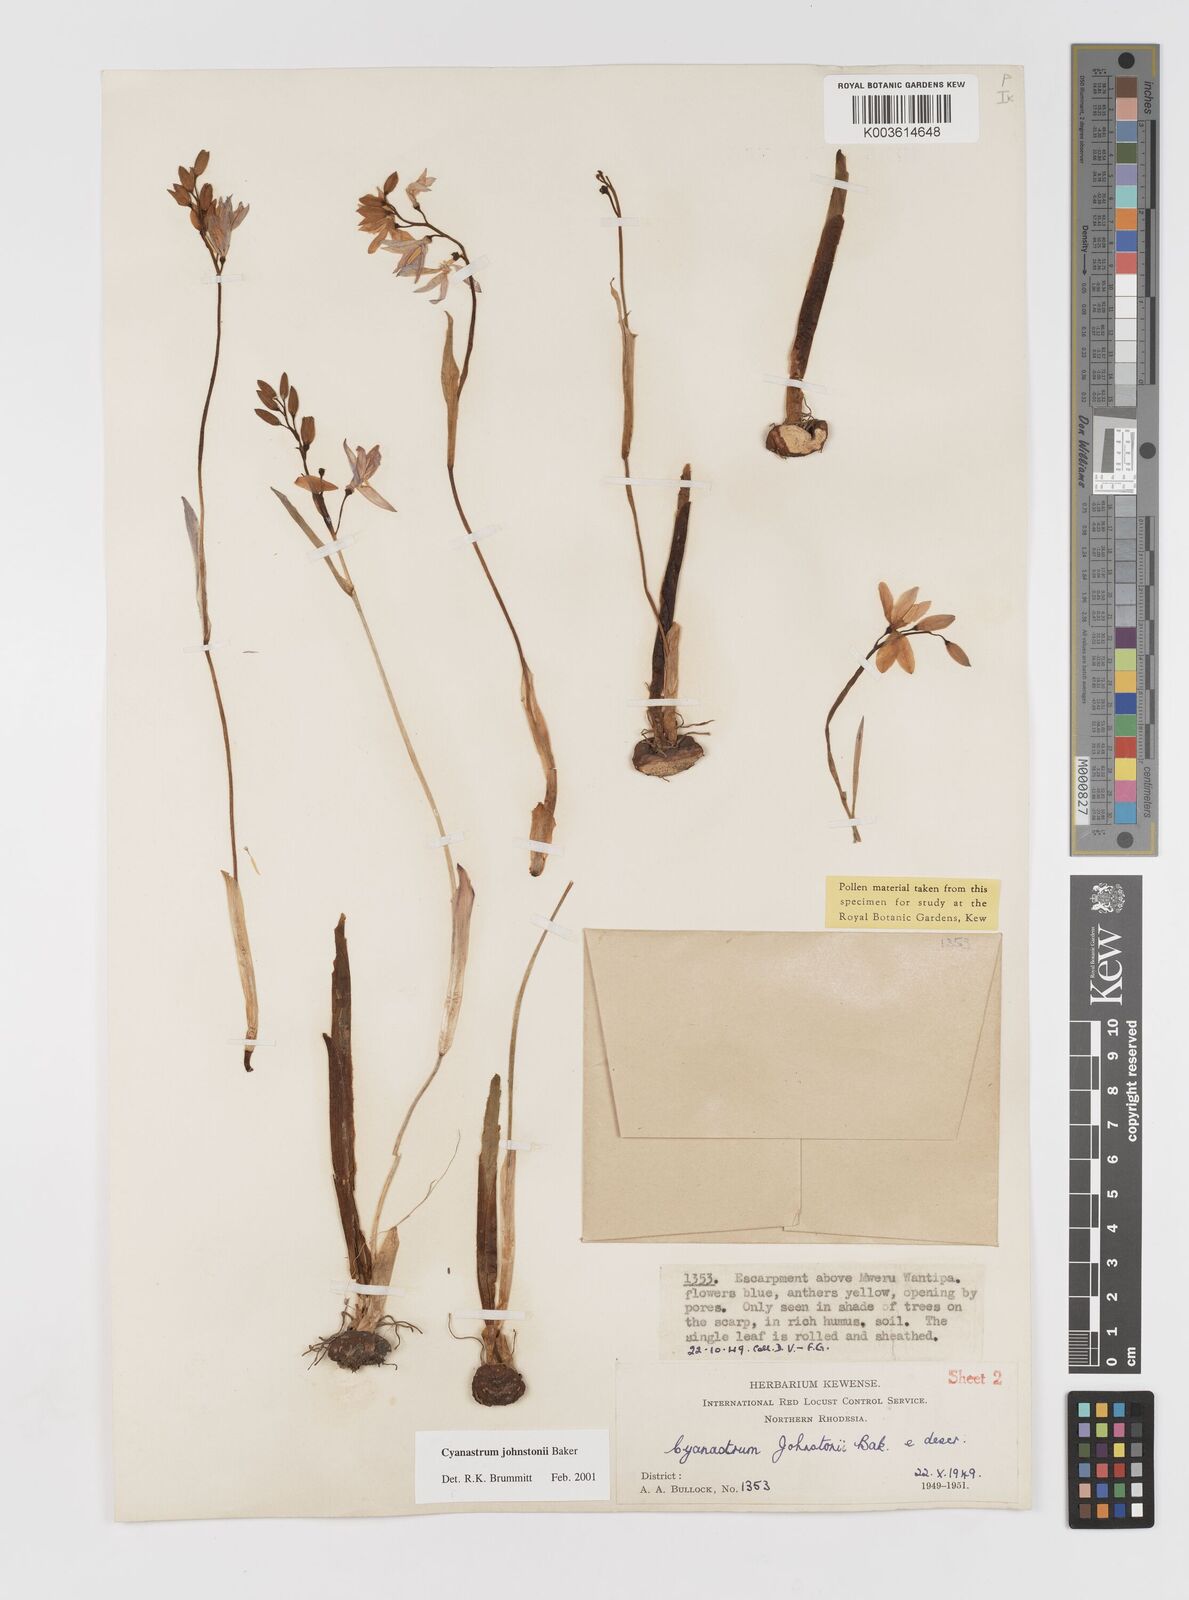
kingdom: Plantae
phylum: Tracheophyta
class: Liliopsida
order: Asparagales
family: Tecophilaeaceae
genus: Cyanastrum
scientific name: Cyanastrum johnstonii
